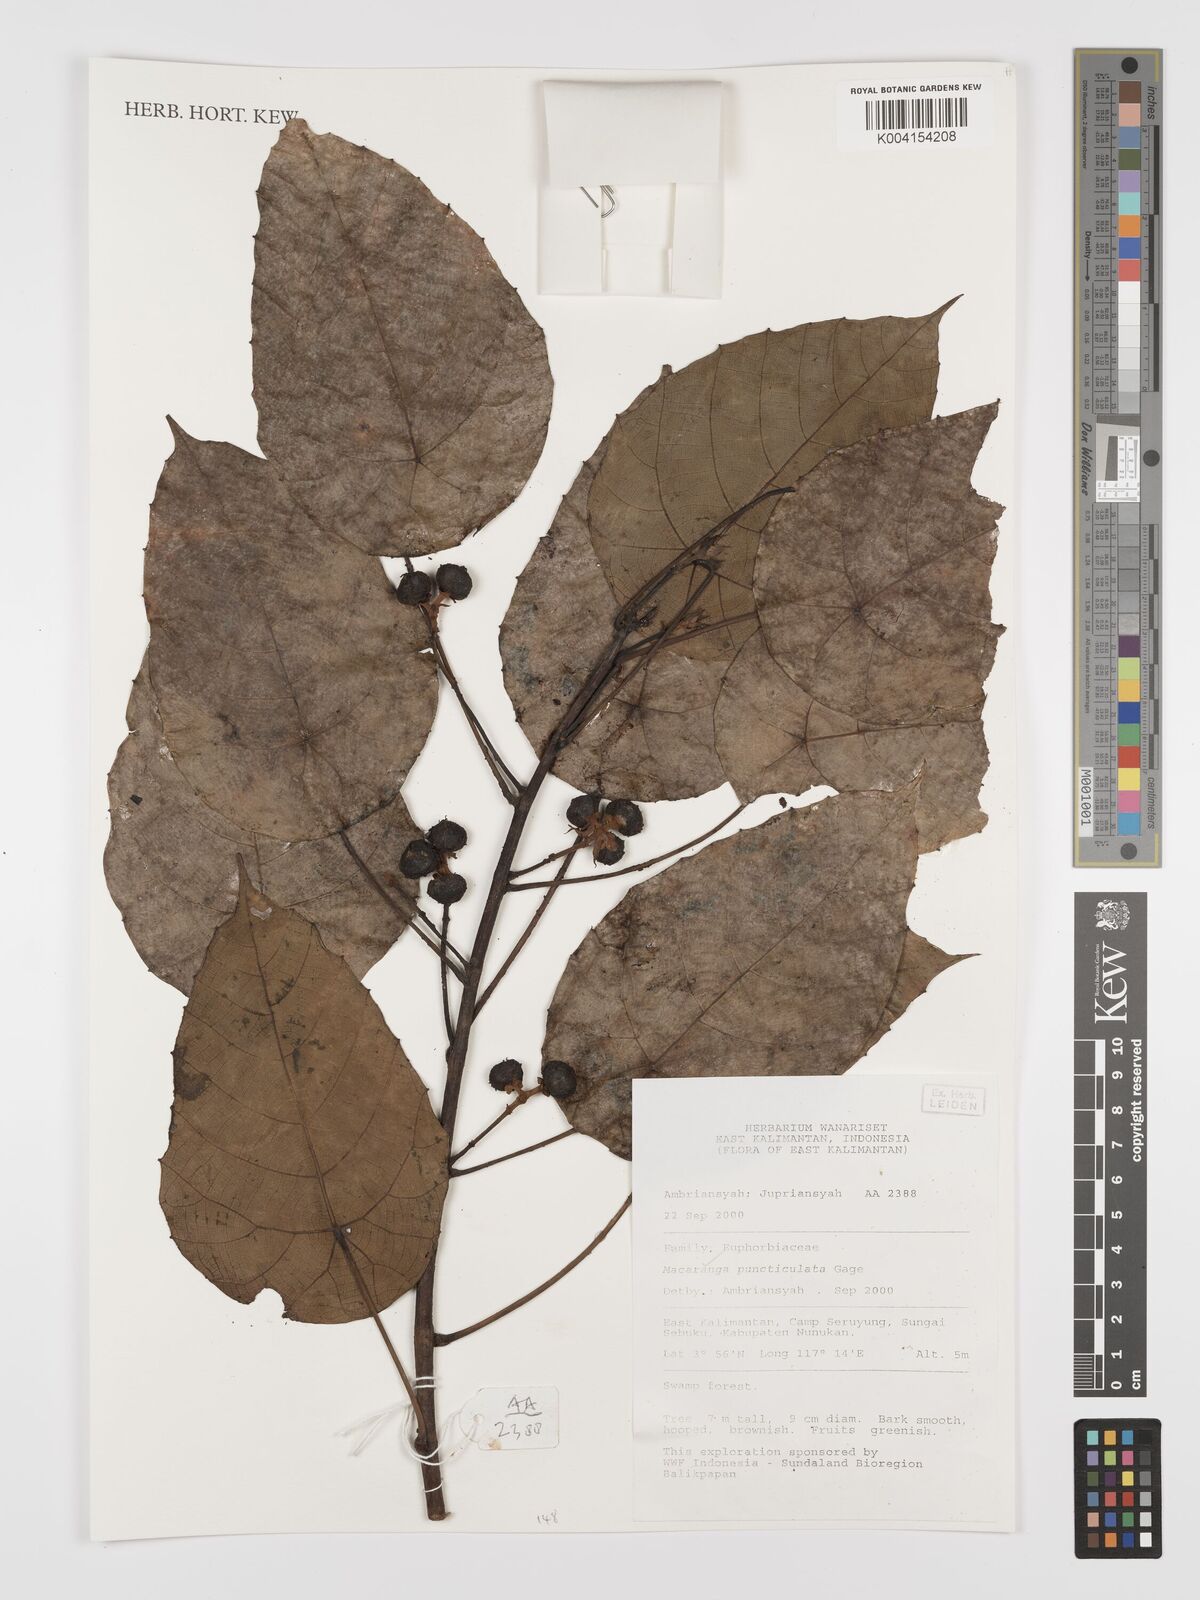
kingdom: Plantae
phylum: Tracheophyta
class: Magnoliopsida
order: Malpighiales
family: Euphorbiaceae
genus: Macaranga
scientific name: Macaranga puncticulata
